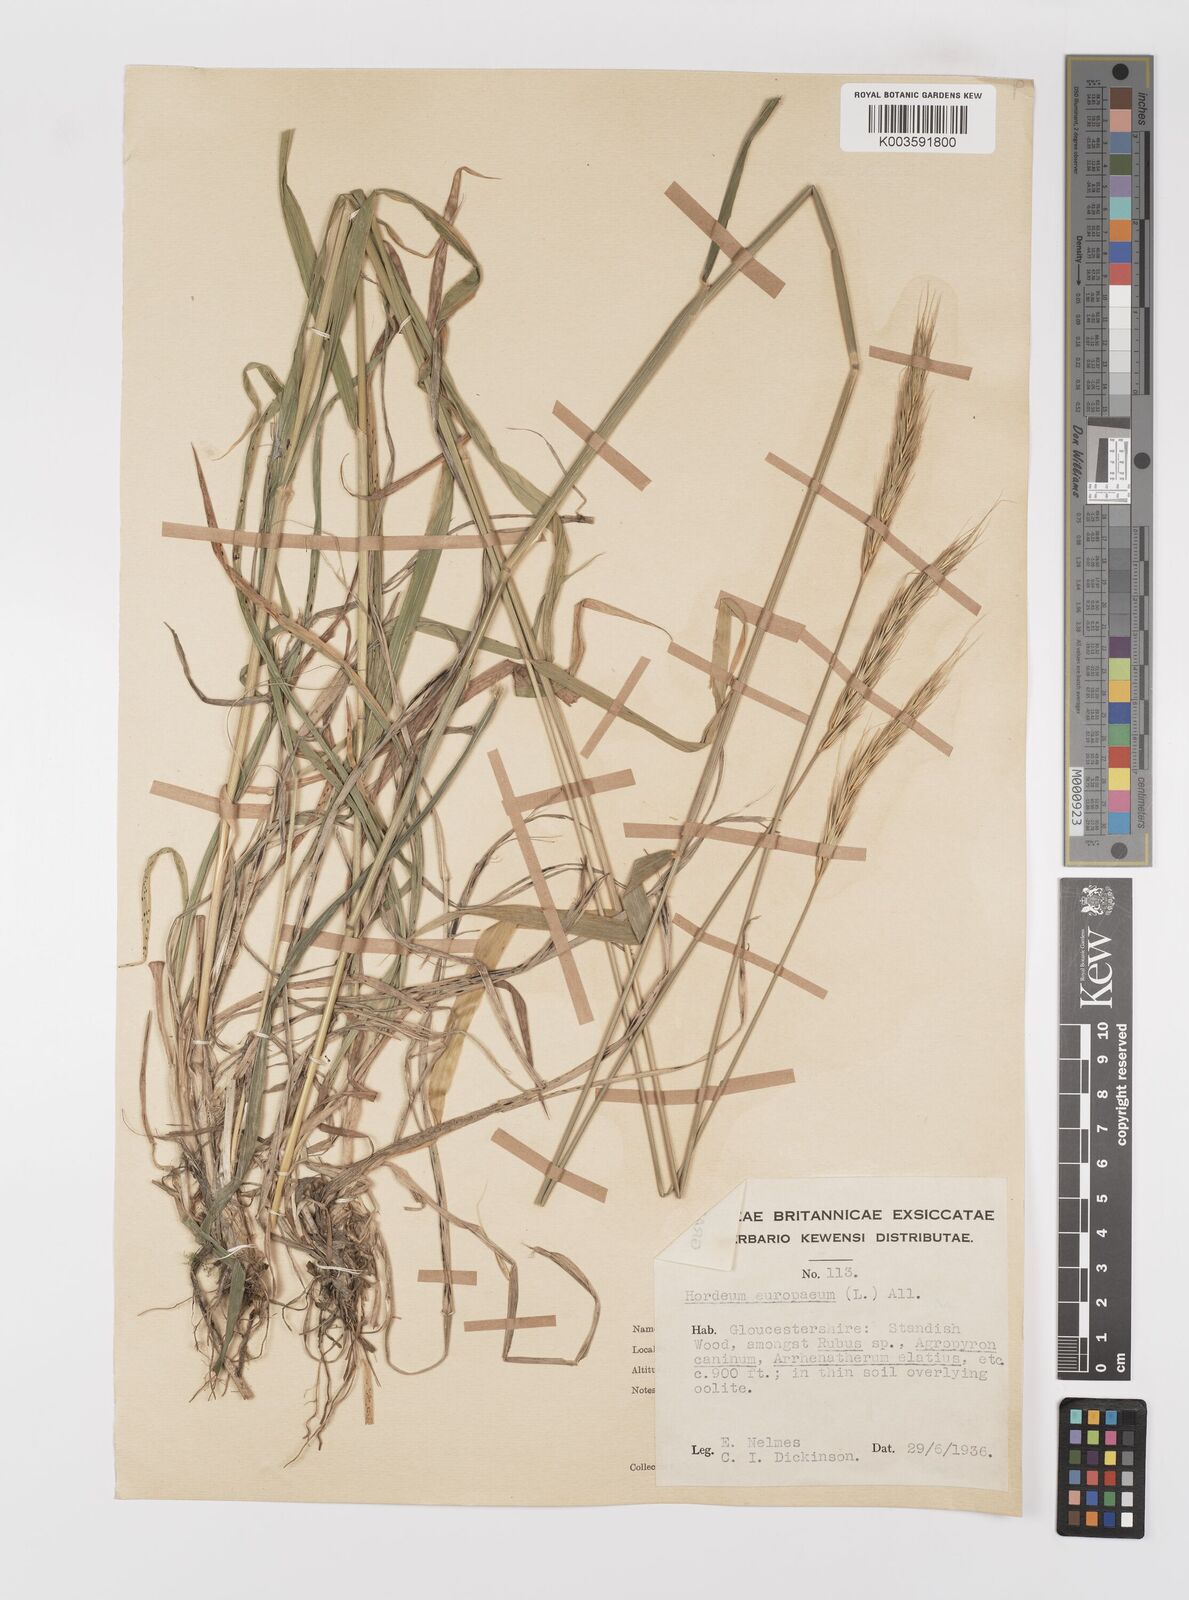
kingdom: Plantae
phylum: Tracheophyta
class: Liliopsida
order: Poales
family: Poaceae
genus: Hordelymus
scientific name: Hordelymus europaeus
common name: Wood-barley
